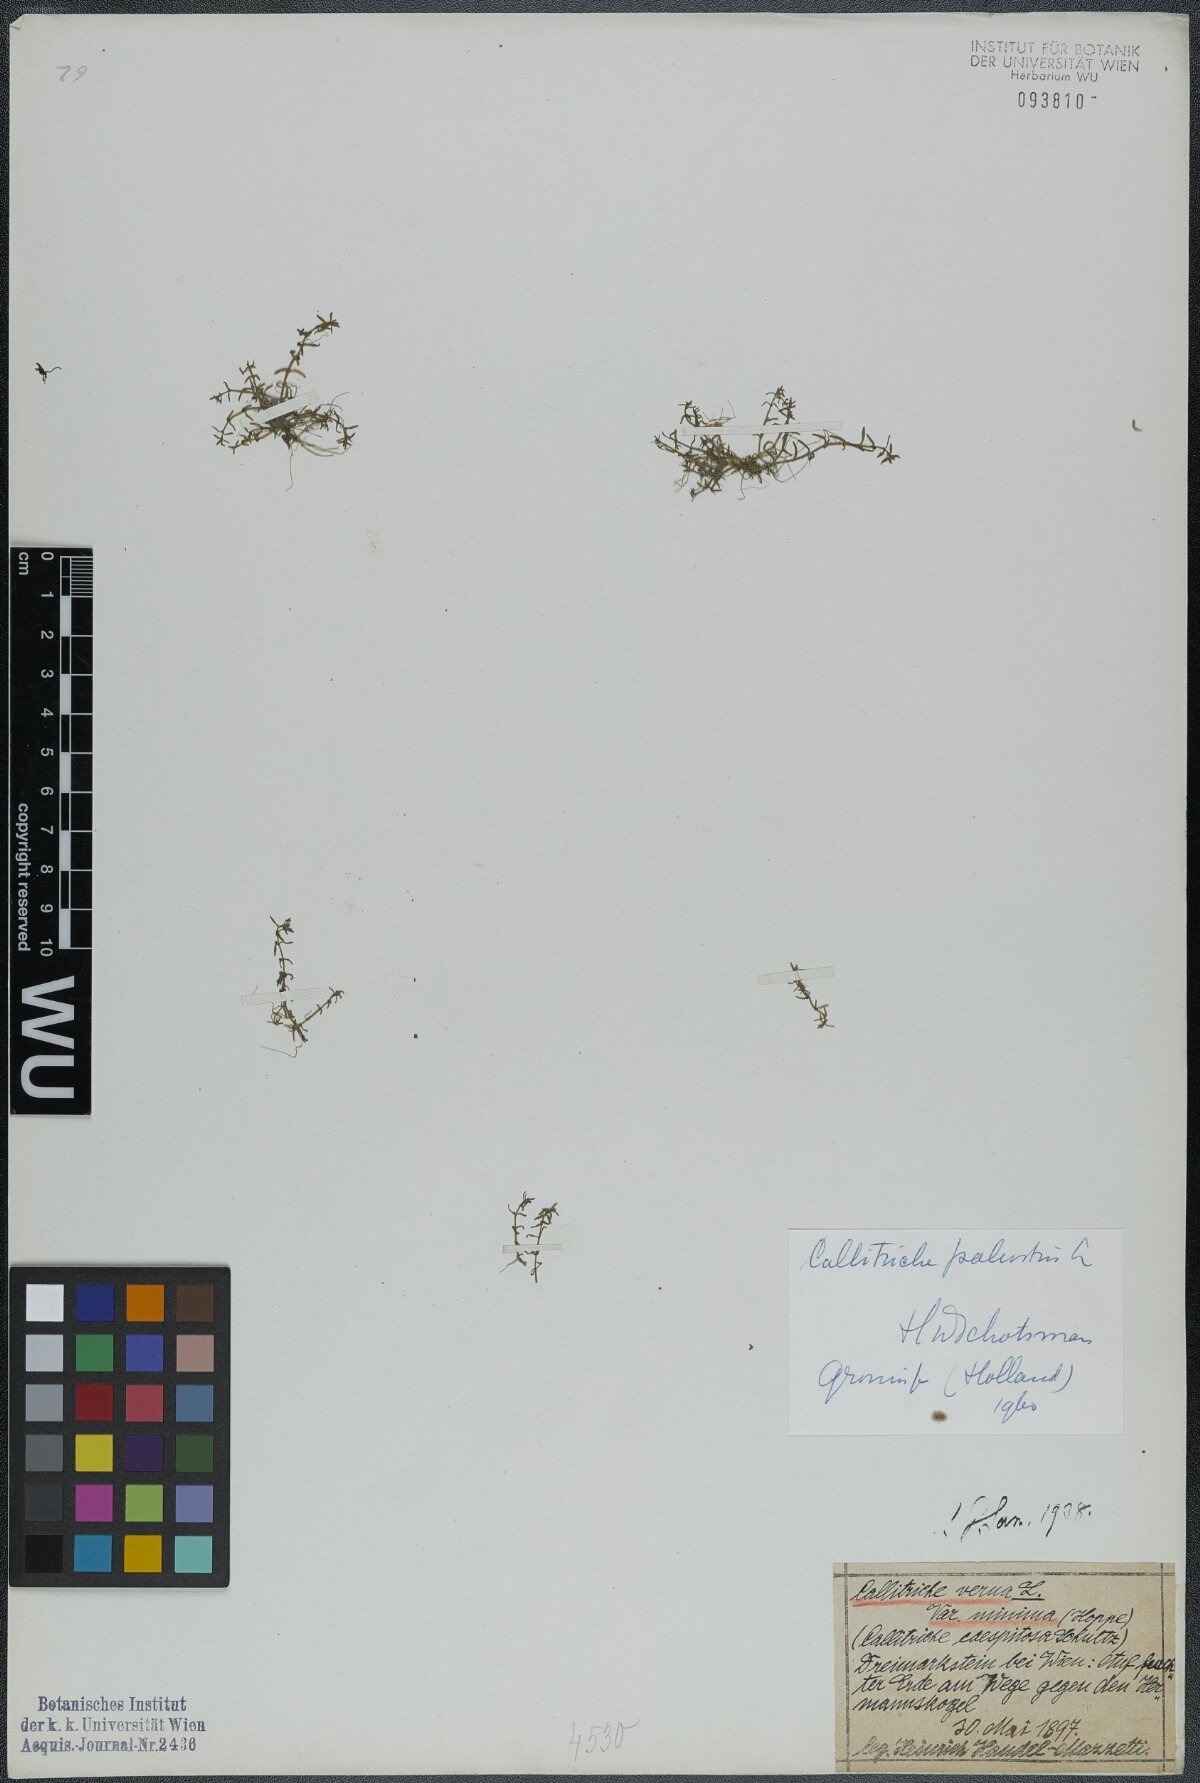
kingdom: Plantae
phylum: Tracheophyta
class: Magnoliopsida
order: Lamiales
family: Plantaginaceae
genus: Callitriche
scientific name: Callitriche palustris
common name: Spring water-starwort
